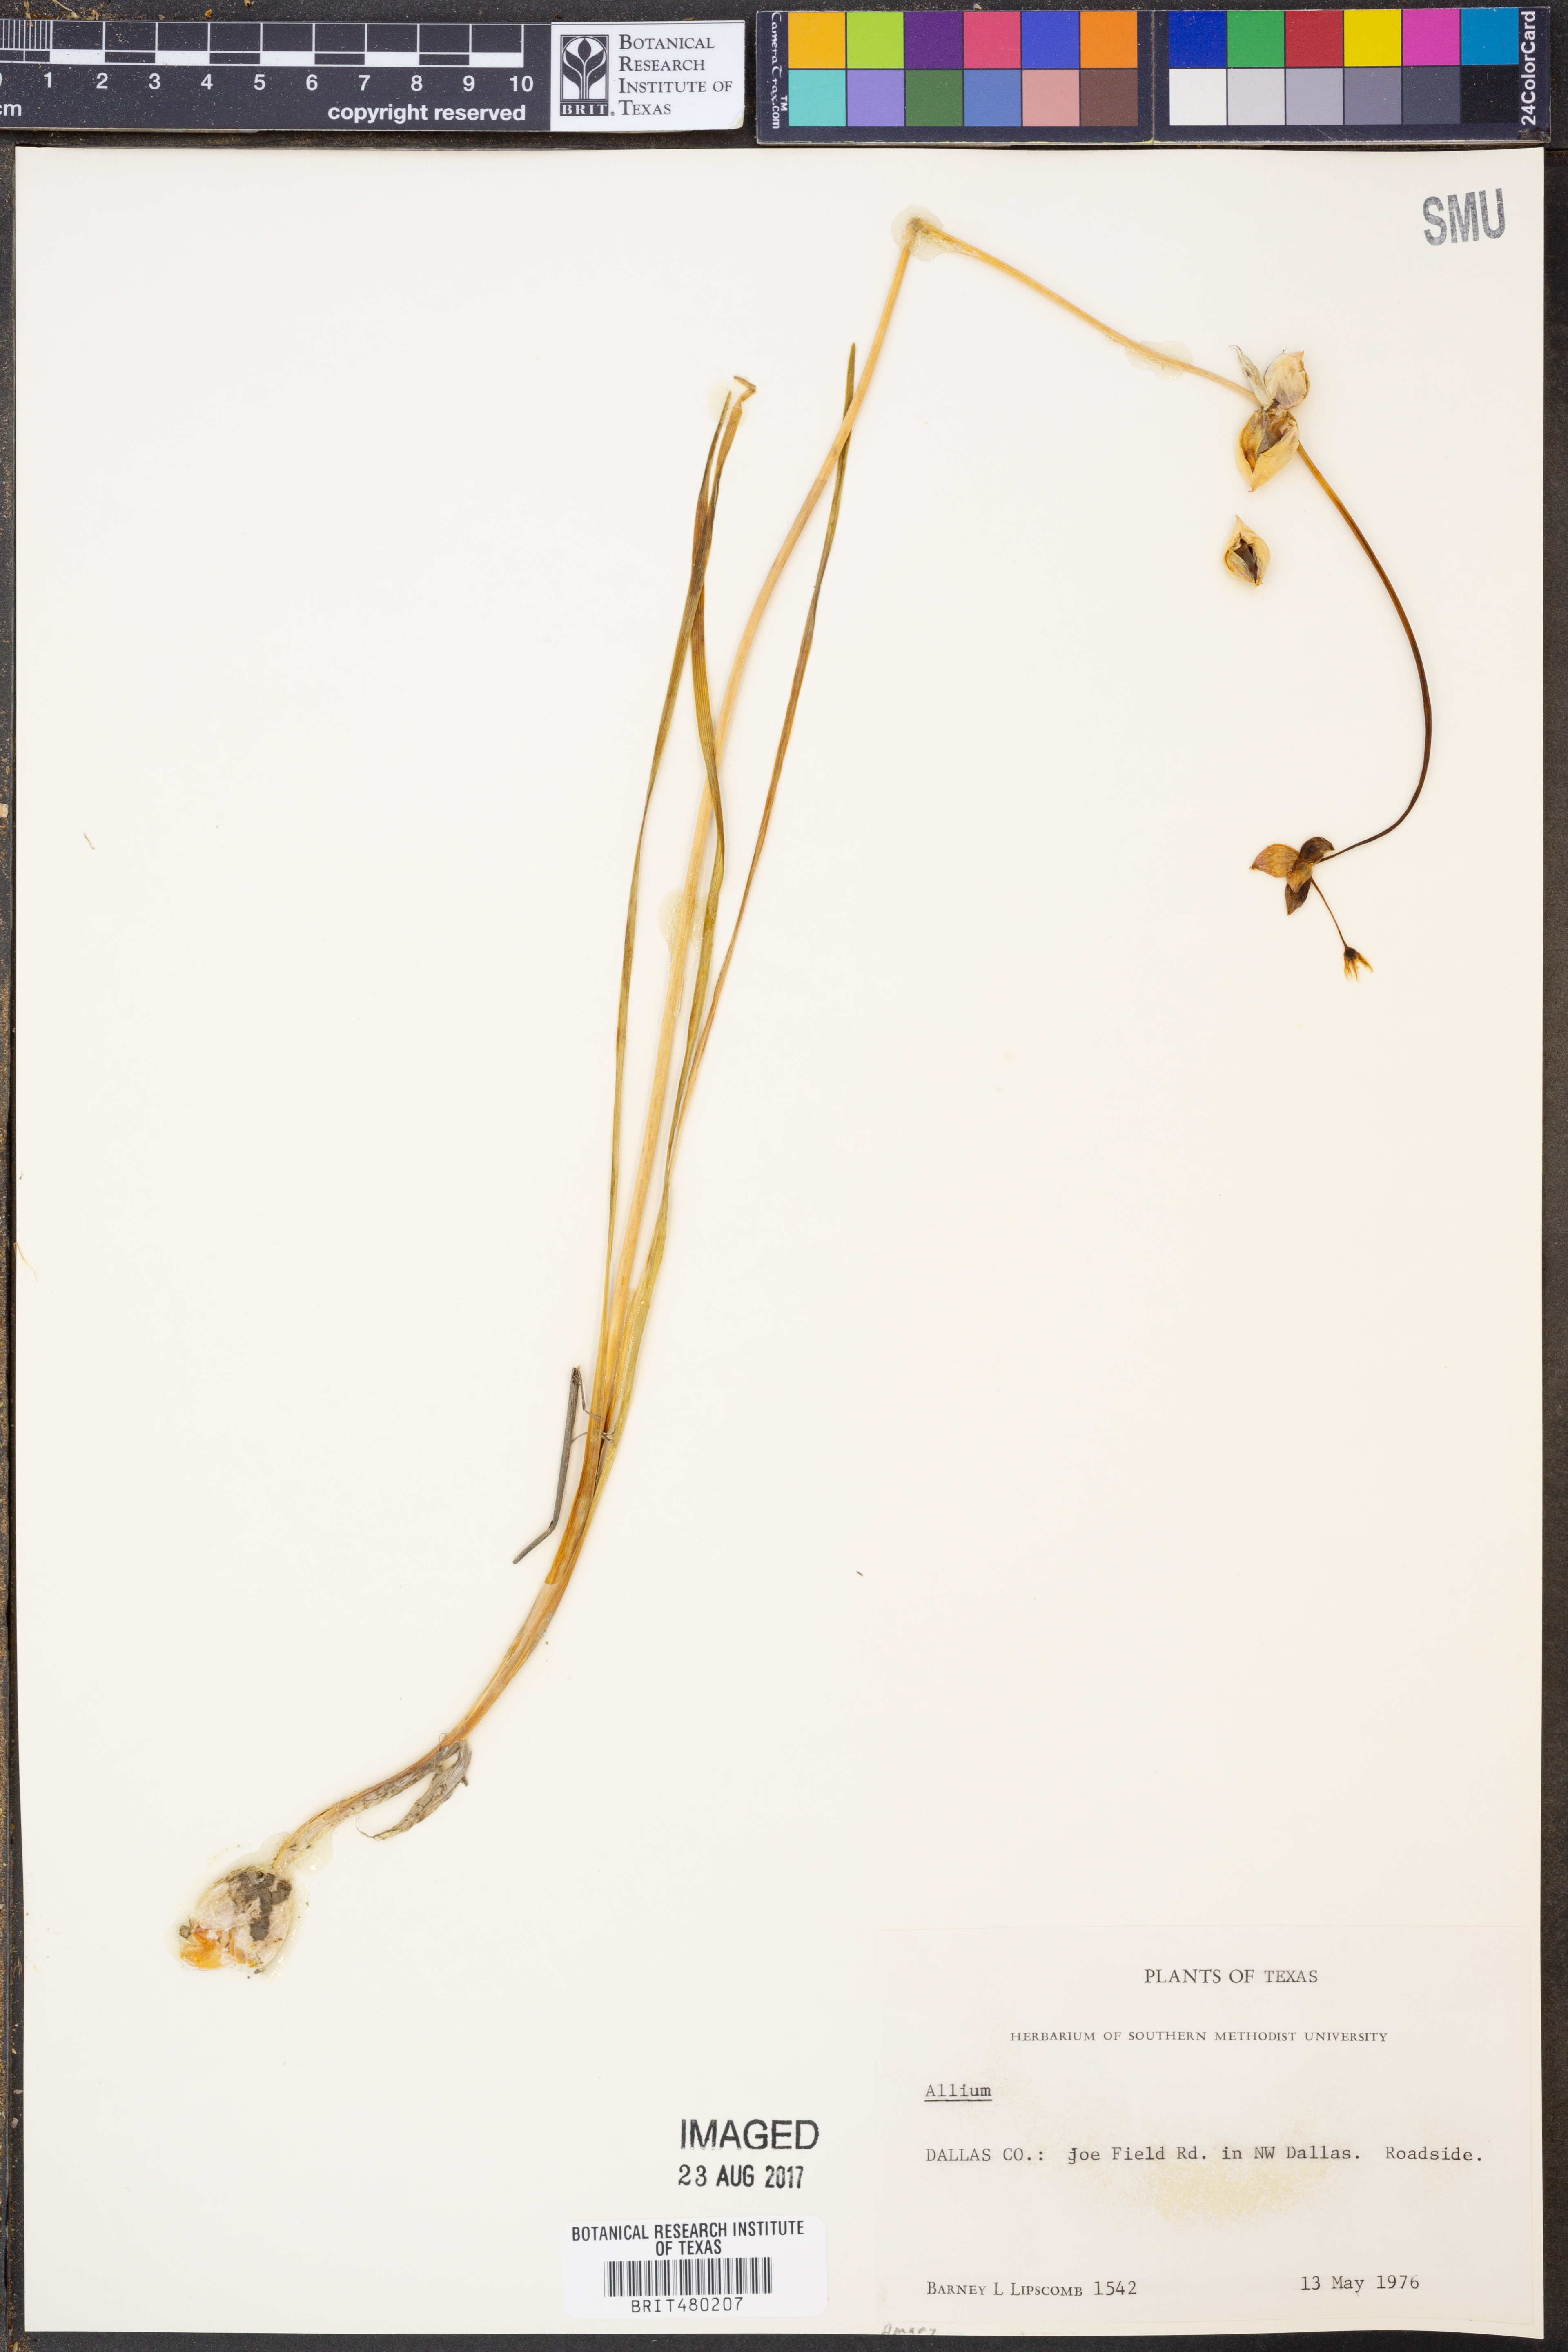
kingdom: Plantae
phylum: Tracheophyta
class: Liliopsida
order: Asparagales
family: Amaryllidaceae
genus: Allium
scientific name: Allium
